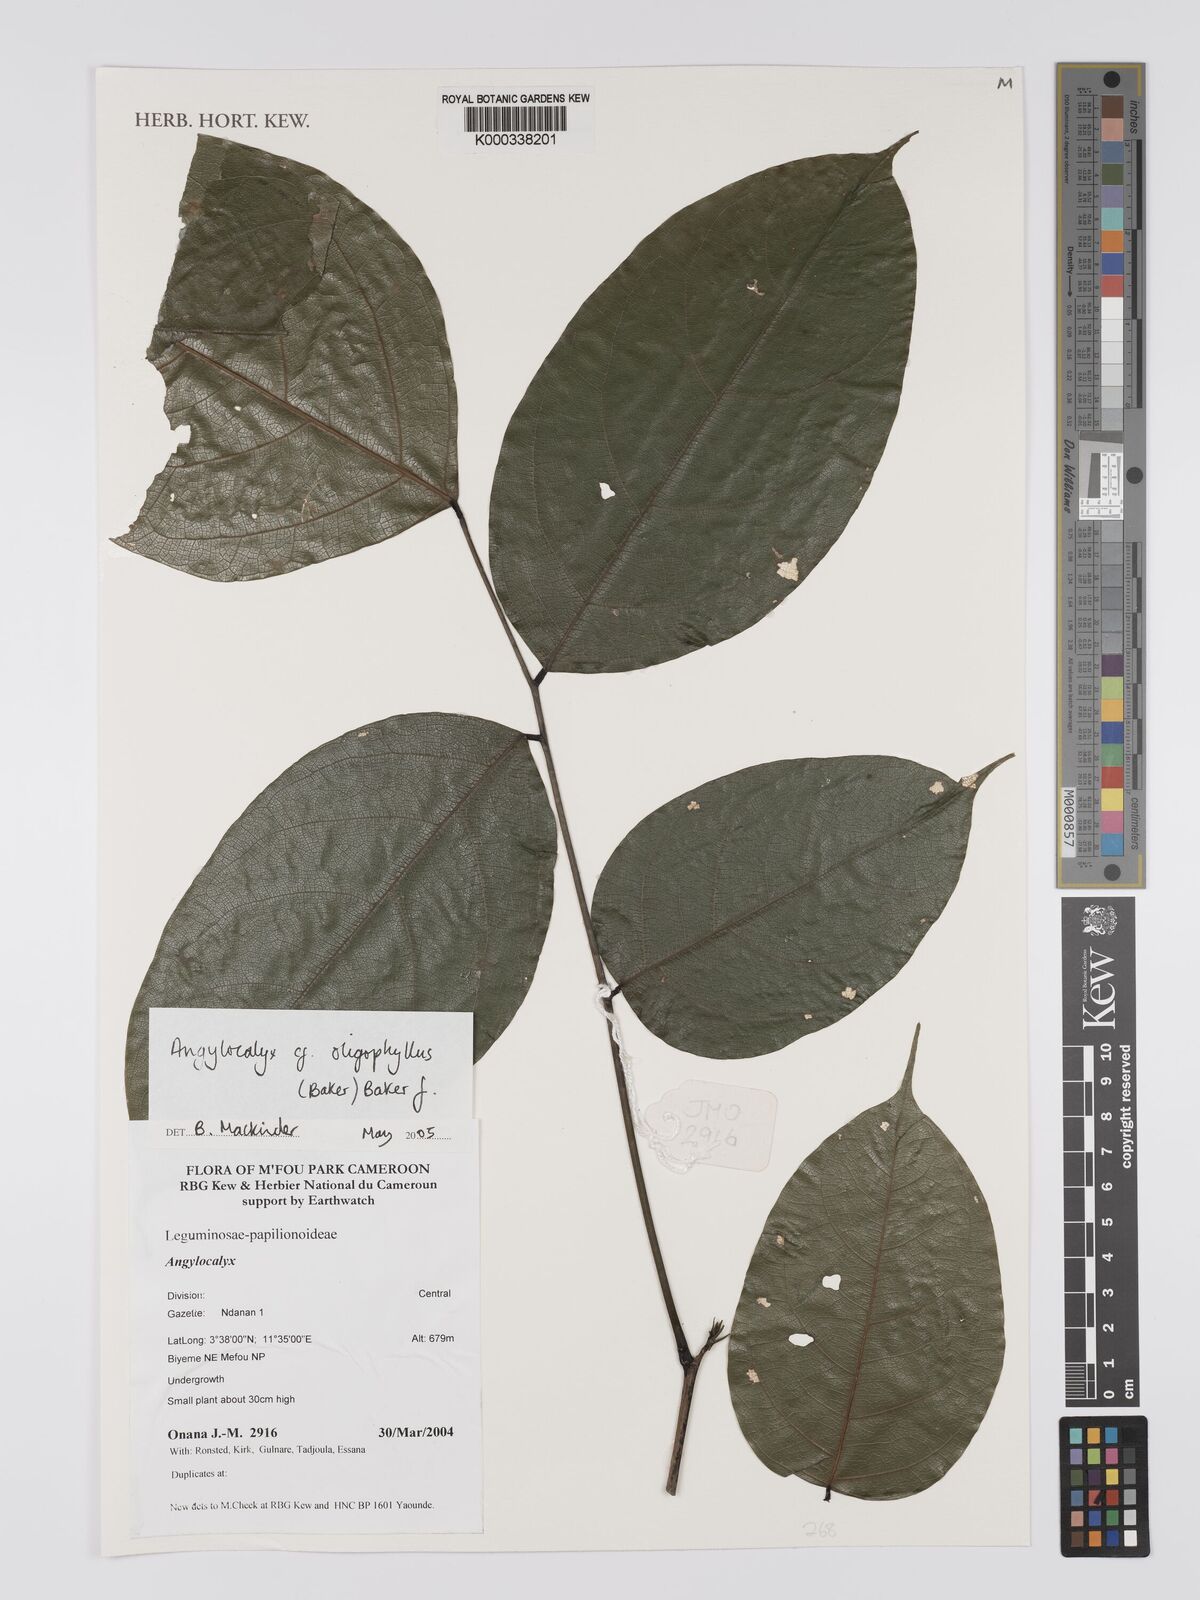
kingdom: Plantae
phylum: Tracheophyta
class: Magnoliopsida
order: Fabales
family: Fabaceae
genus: Angylocalyx
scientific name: Angylocalyx oligophyllus
